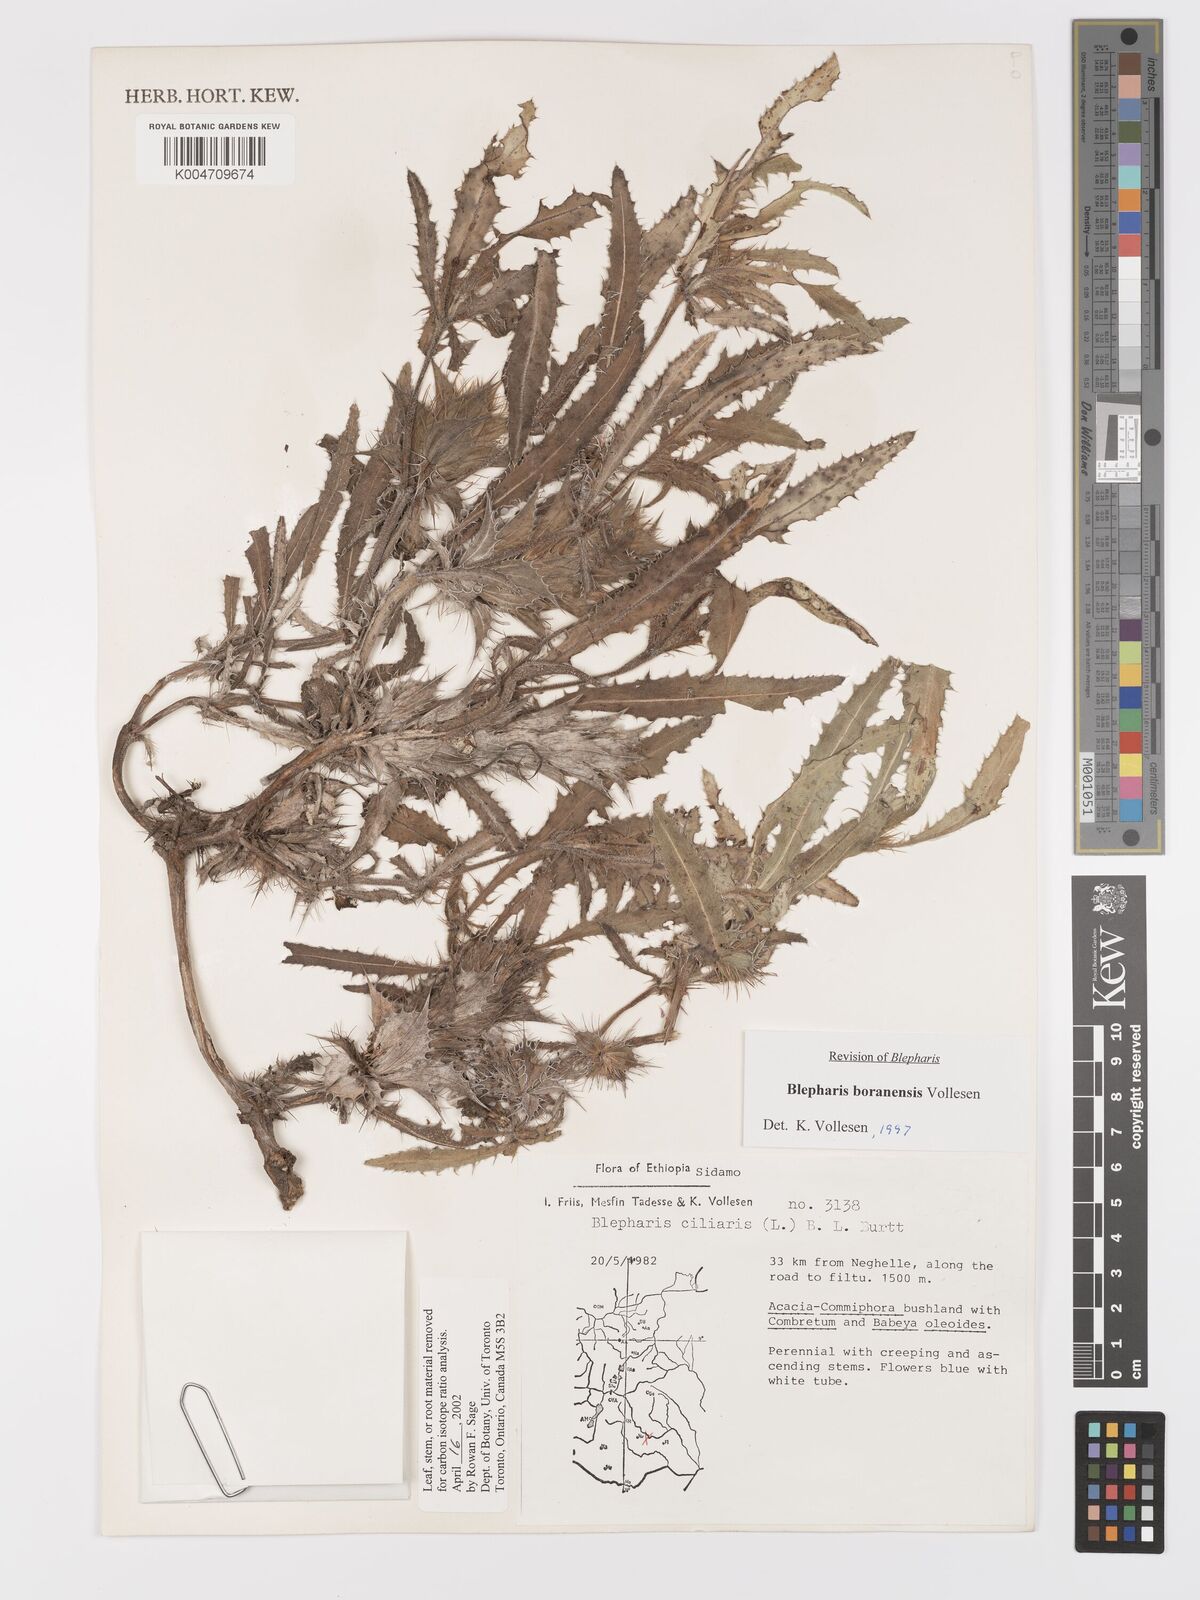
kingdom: Plantae
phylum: Tracheophyta
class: Magnoliopsida
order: Lamiales
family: Acanthaceae
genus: Blepharis
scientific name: Blepharis boranensis
